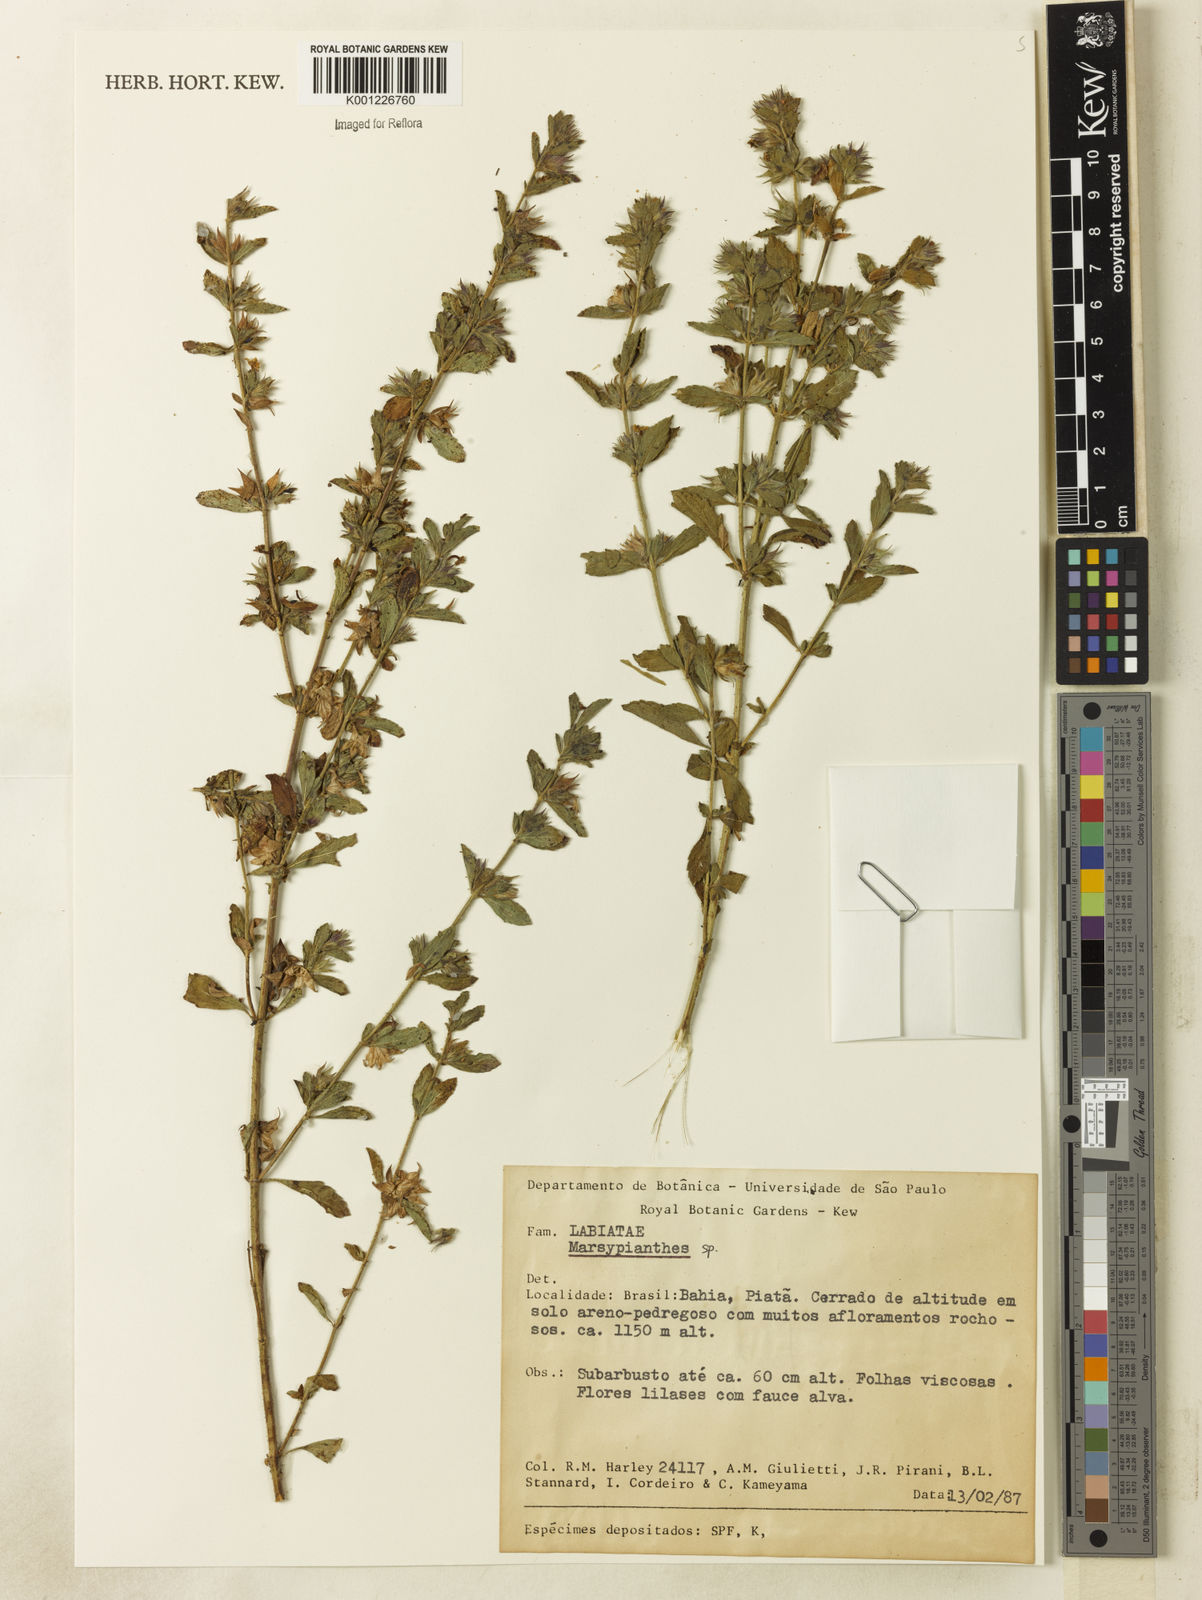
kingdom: Plantae
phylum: Tracheophyta
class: Magnoliopsida
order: Lamiales
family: Lamiaceae
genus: Marsypianthes
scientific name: Marsypianthes
